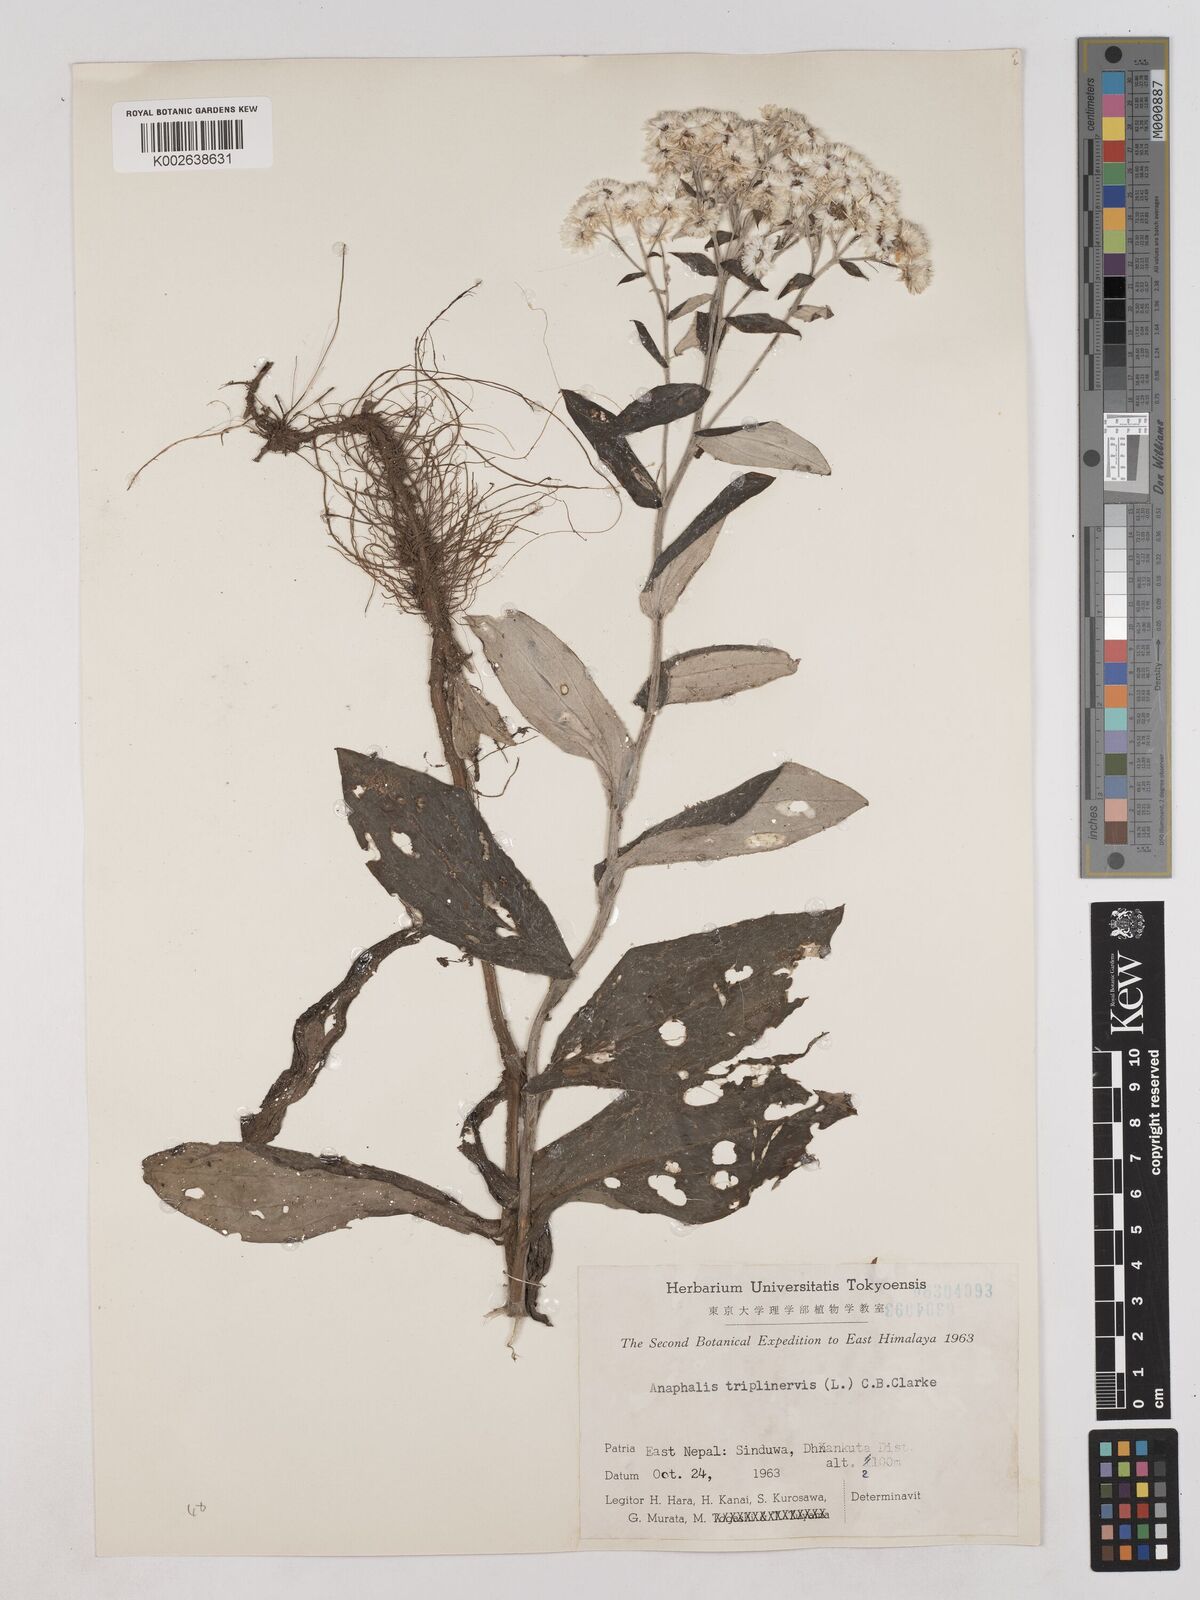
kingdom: Plantae
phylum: Tracheophyta
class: Magnoliopsida
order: Asterales
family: Asteraceae
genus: Anaphalis
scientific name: Anaphalis triplinervis
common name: Pearly everlasting
